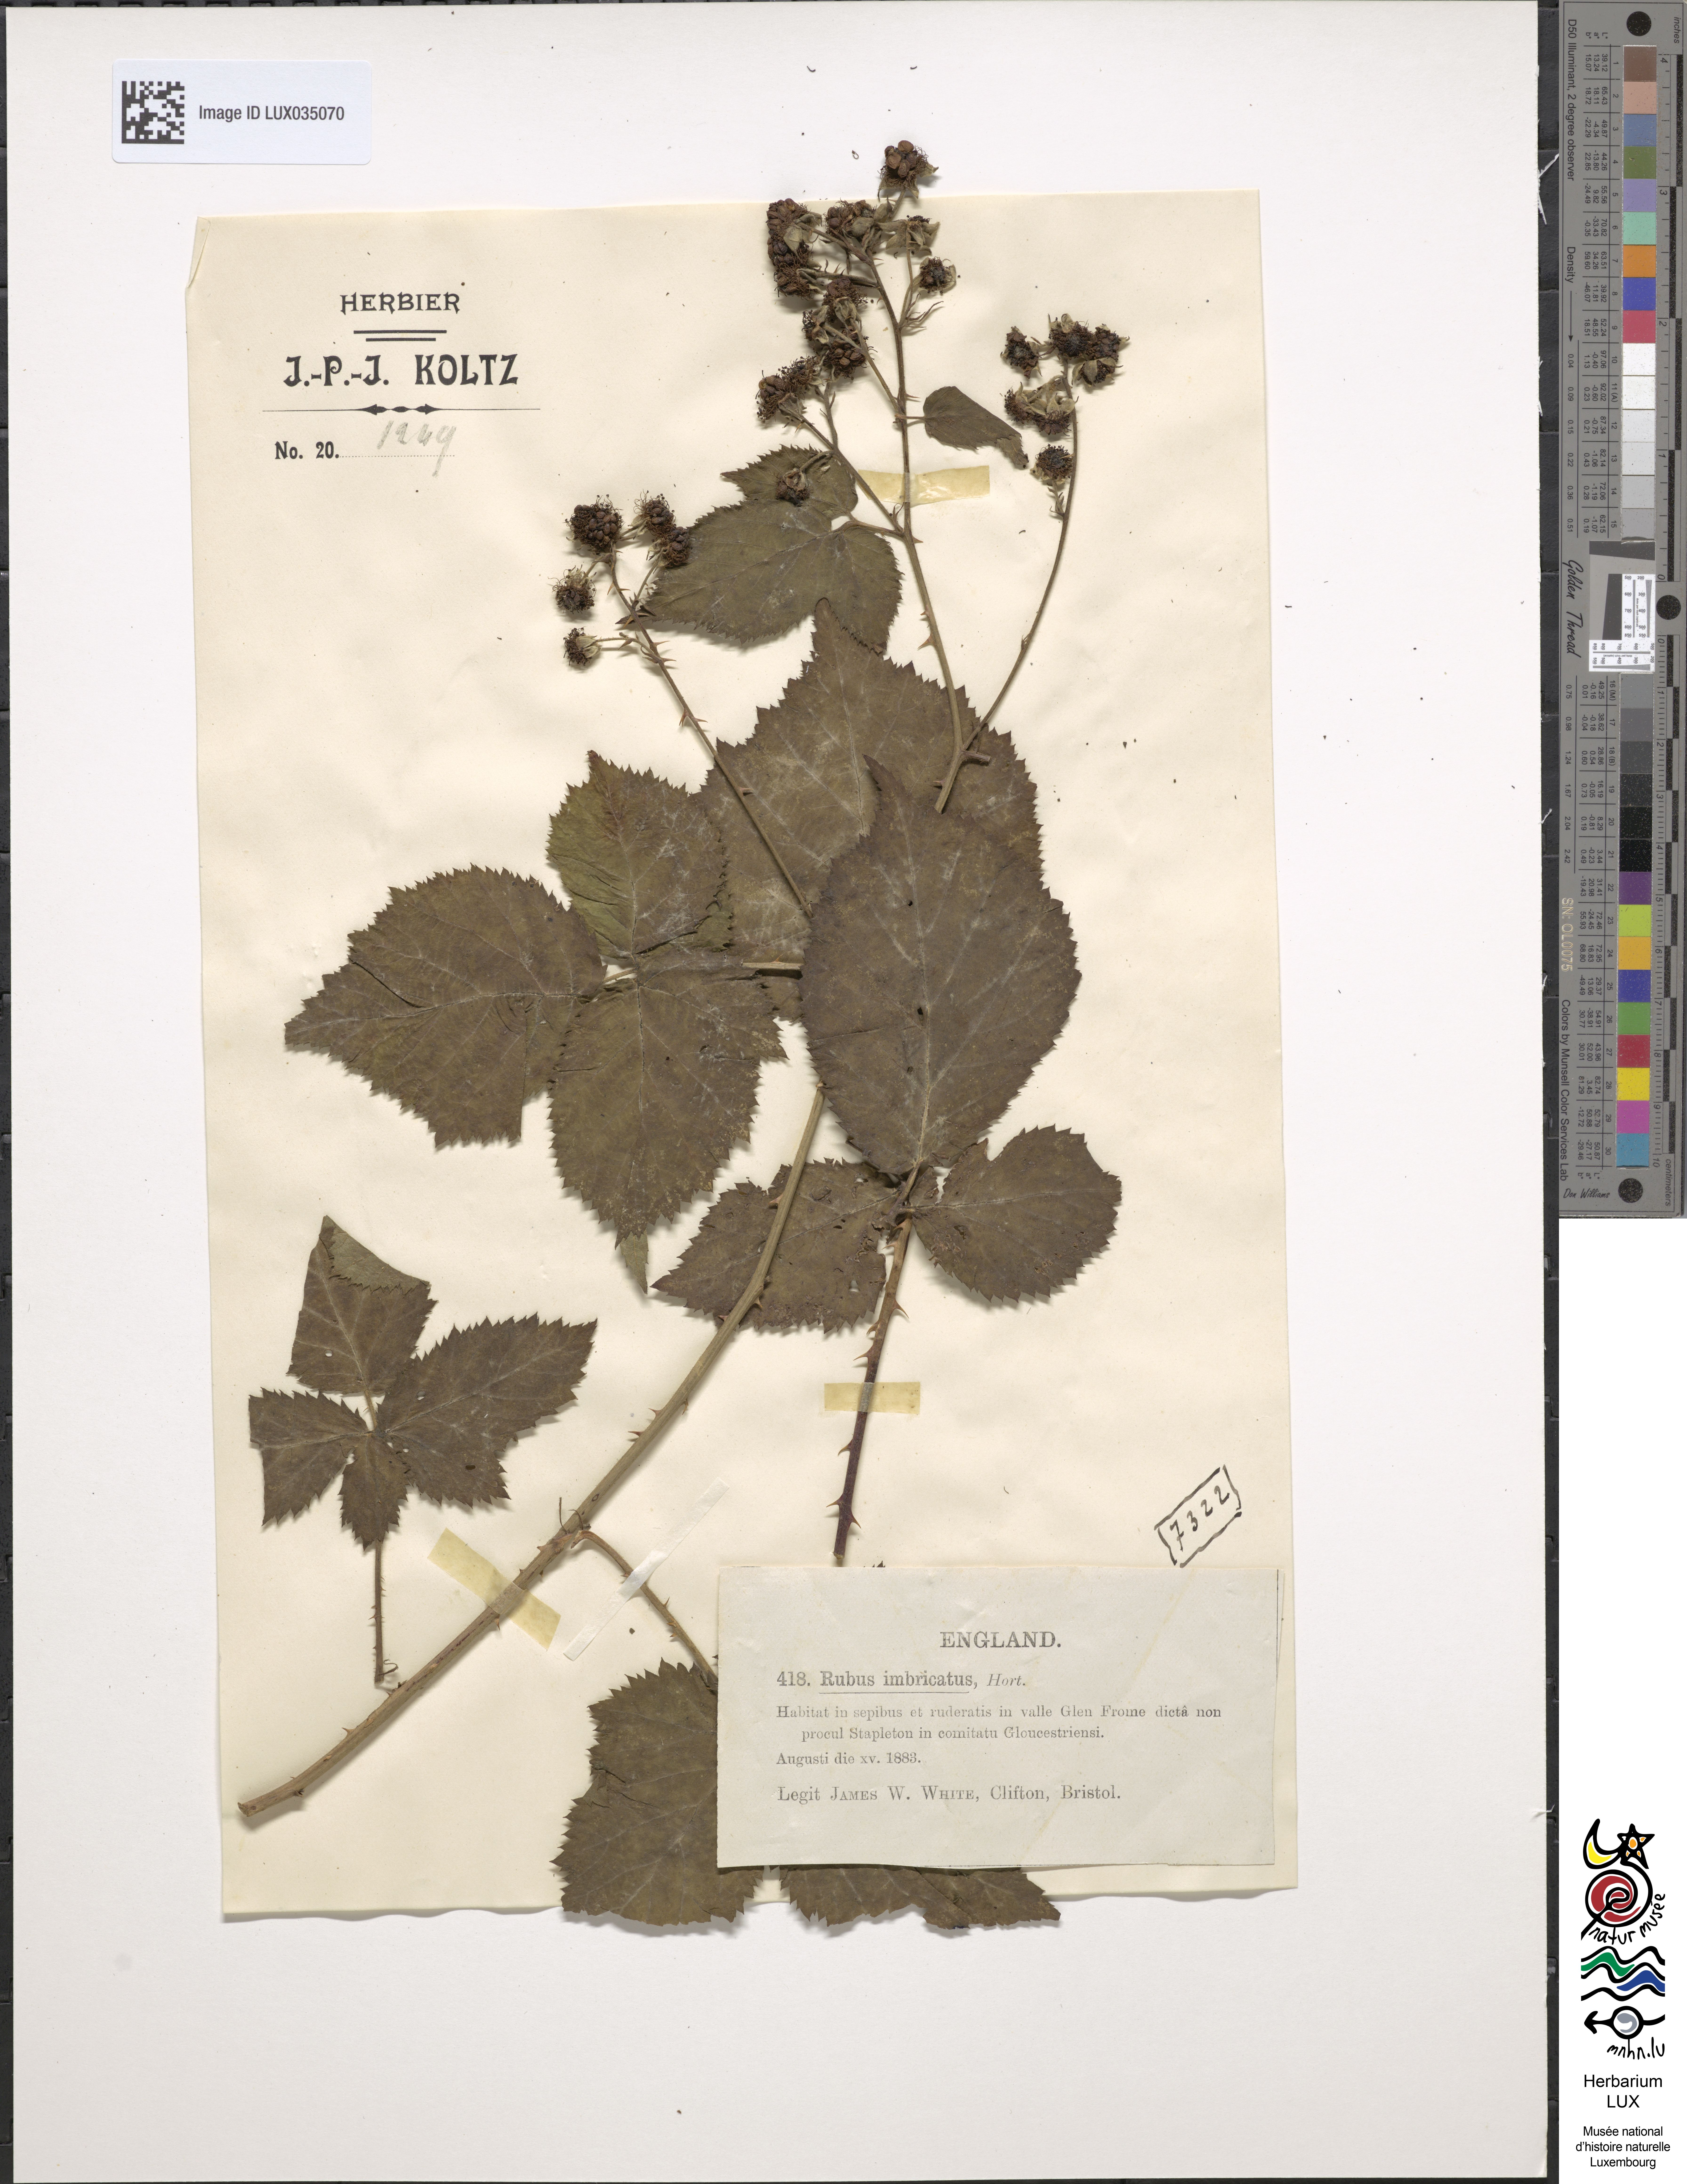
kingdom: Plantae
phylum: Tracheophyta
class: Magnoliopsida
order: Rosales
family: Rosaceae
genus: Rubus
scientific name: Rubus imbricatus
